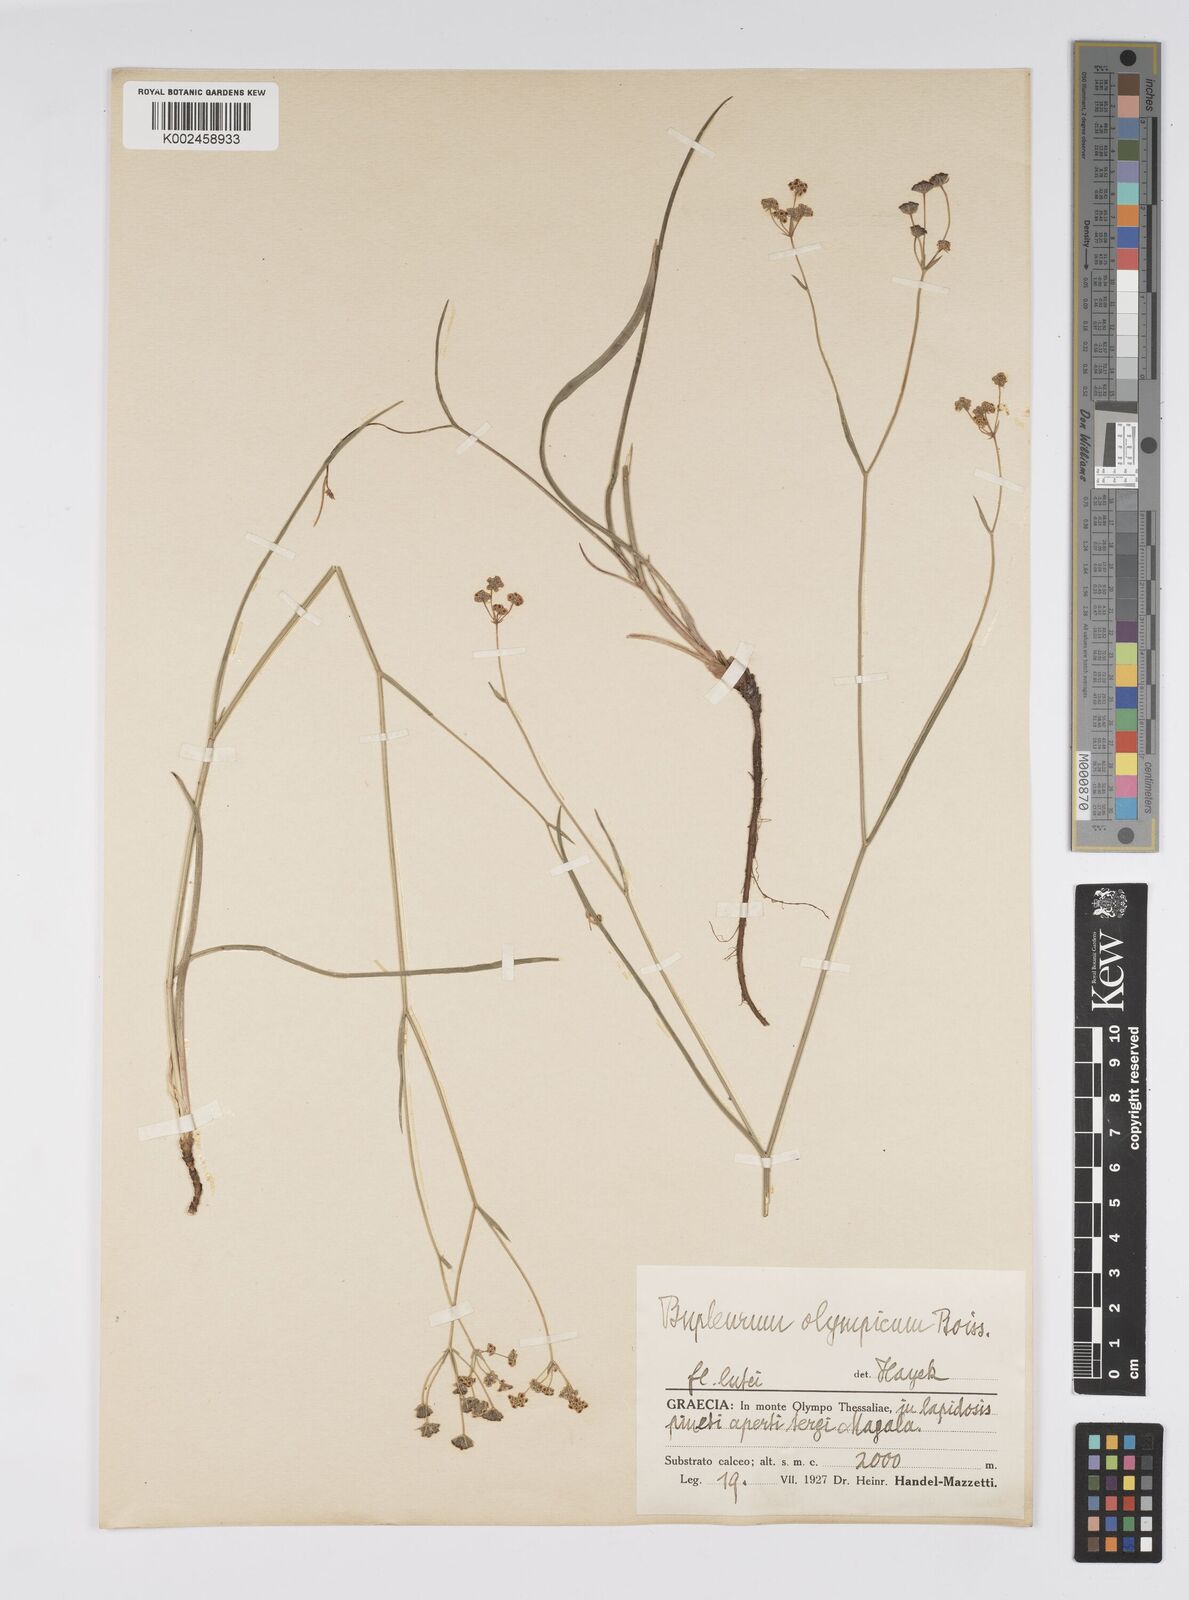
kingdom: Plantae
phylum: Tracheophyta
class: Magnoliopsida
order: Apiales
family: Apiaceae
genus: Bupleurum
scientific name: Bupleurum falcatum
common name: Sickle-leaved hare's-ear
